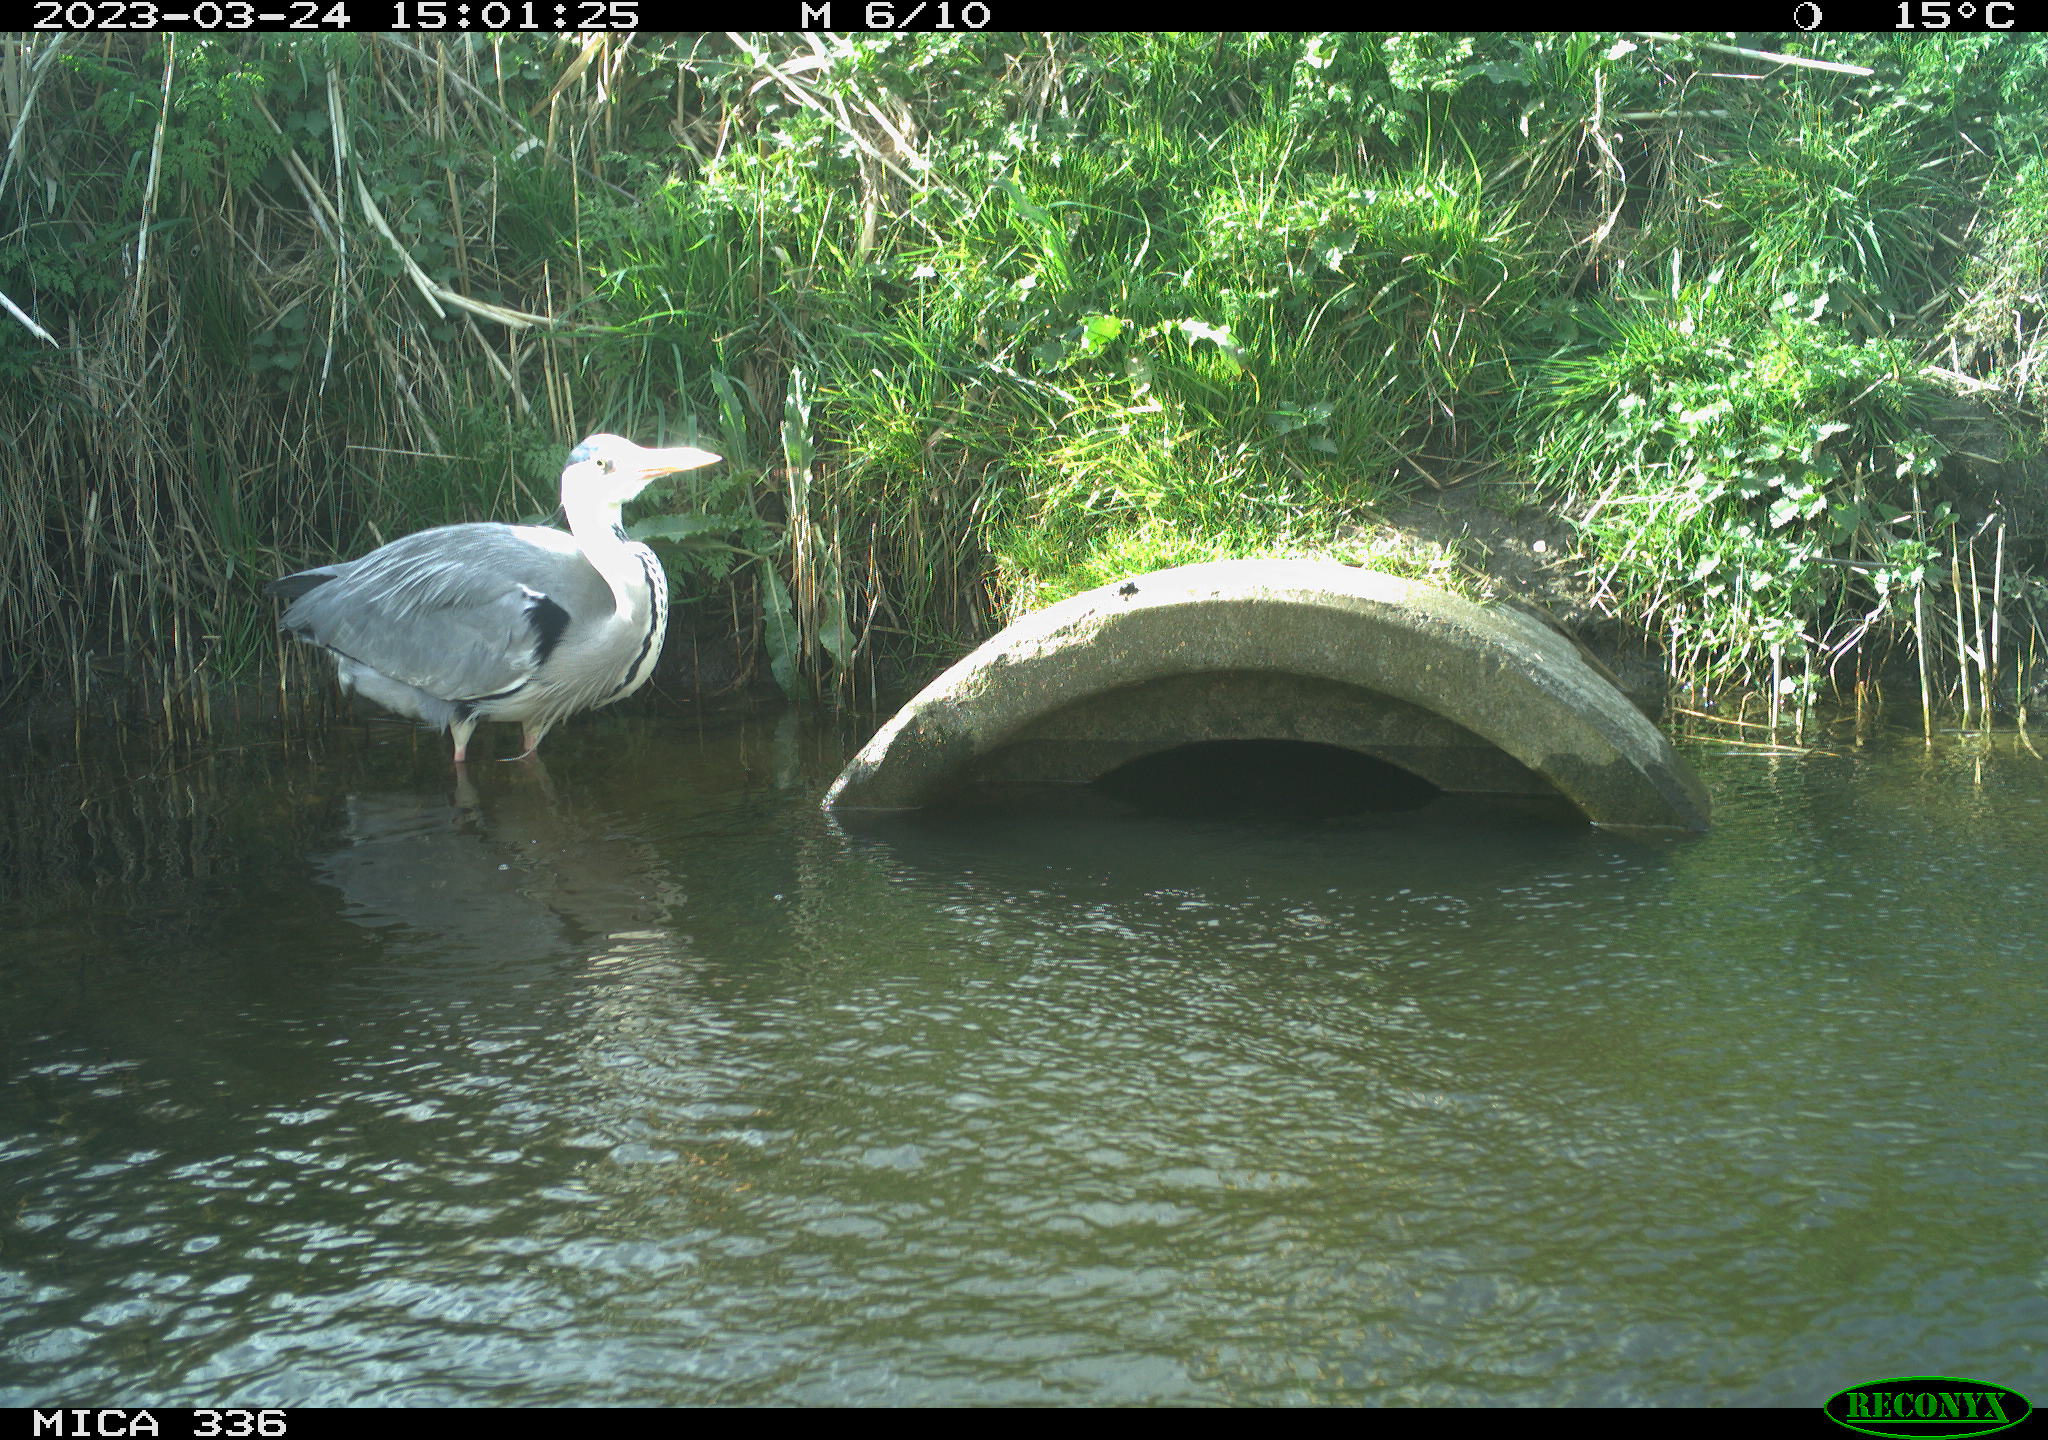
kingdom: Animalia
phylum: Chordata
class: Aves
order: Pelecaniformes
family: Ardeidae
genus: Ardea
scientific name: Ardea
